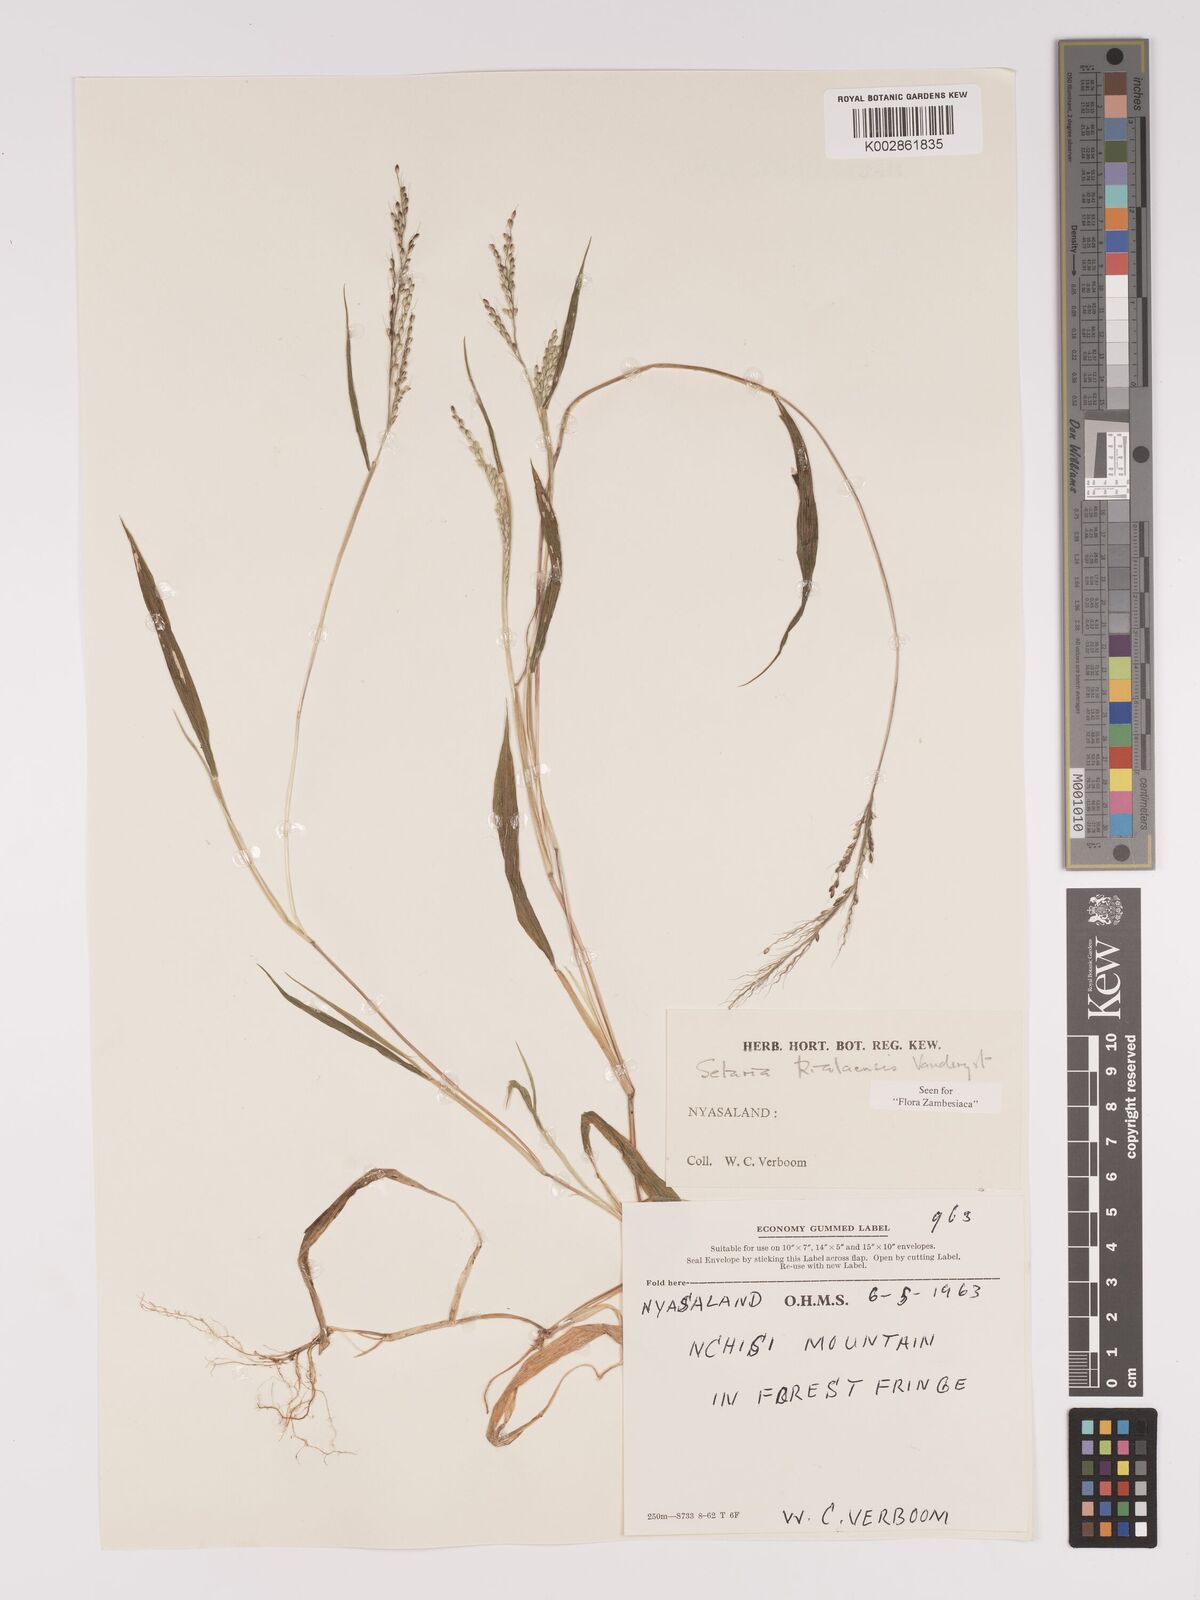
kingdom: Plantae
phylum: Tracheophyta
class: Liliopsida
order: Poales
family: Poaceae
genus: Setaria
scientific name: Setaria homonyma
